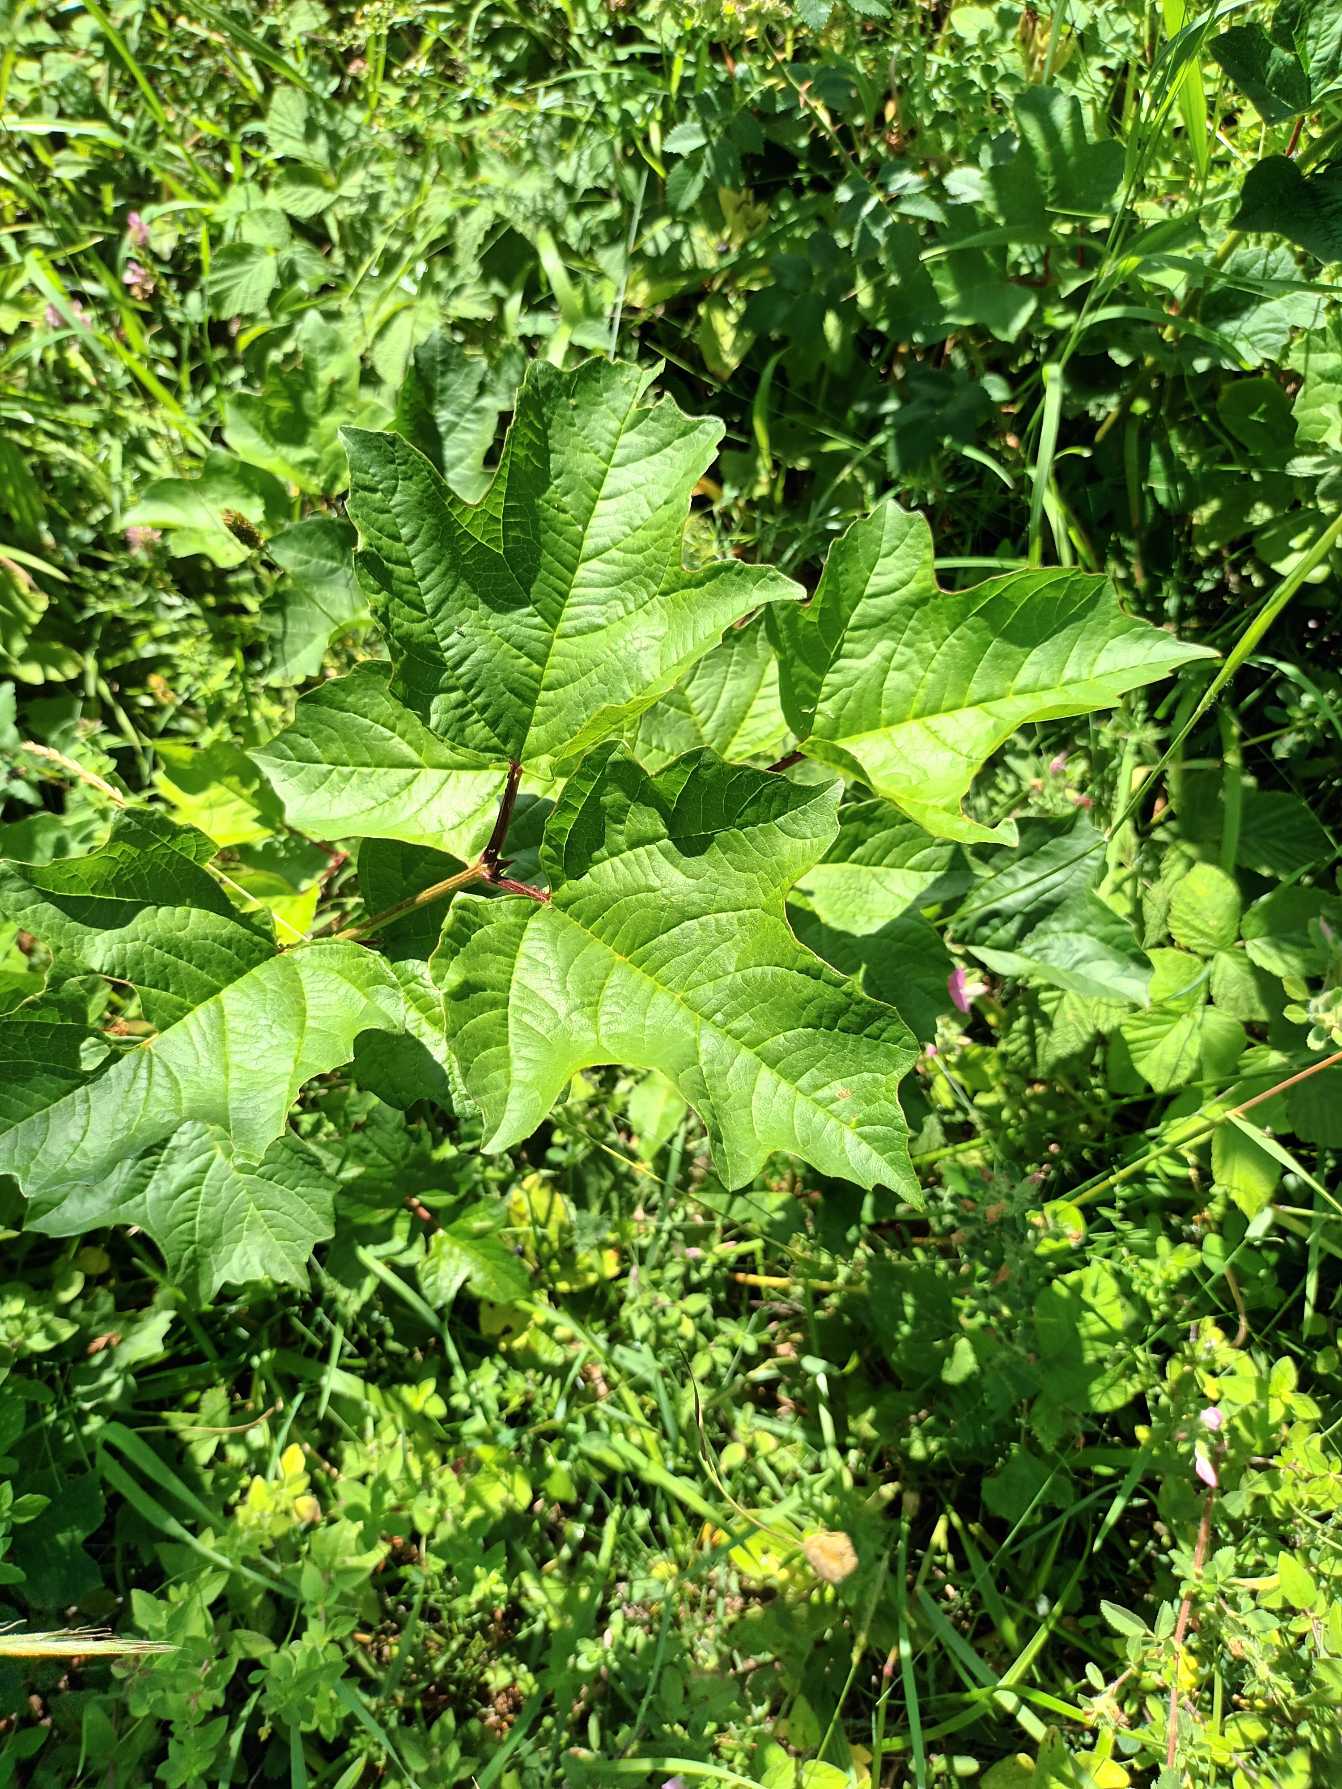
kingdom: Plantae
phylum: Tracheophyta
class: Magnoliopsida
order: Dipsacales
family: Viburnaceae
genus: Viburnum
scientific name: Viburnum opulus
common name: Kvalkved
